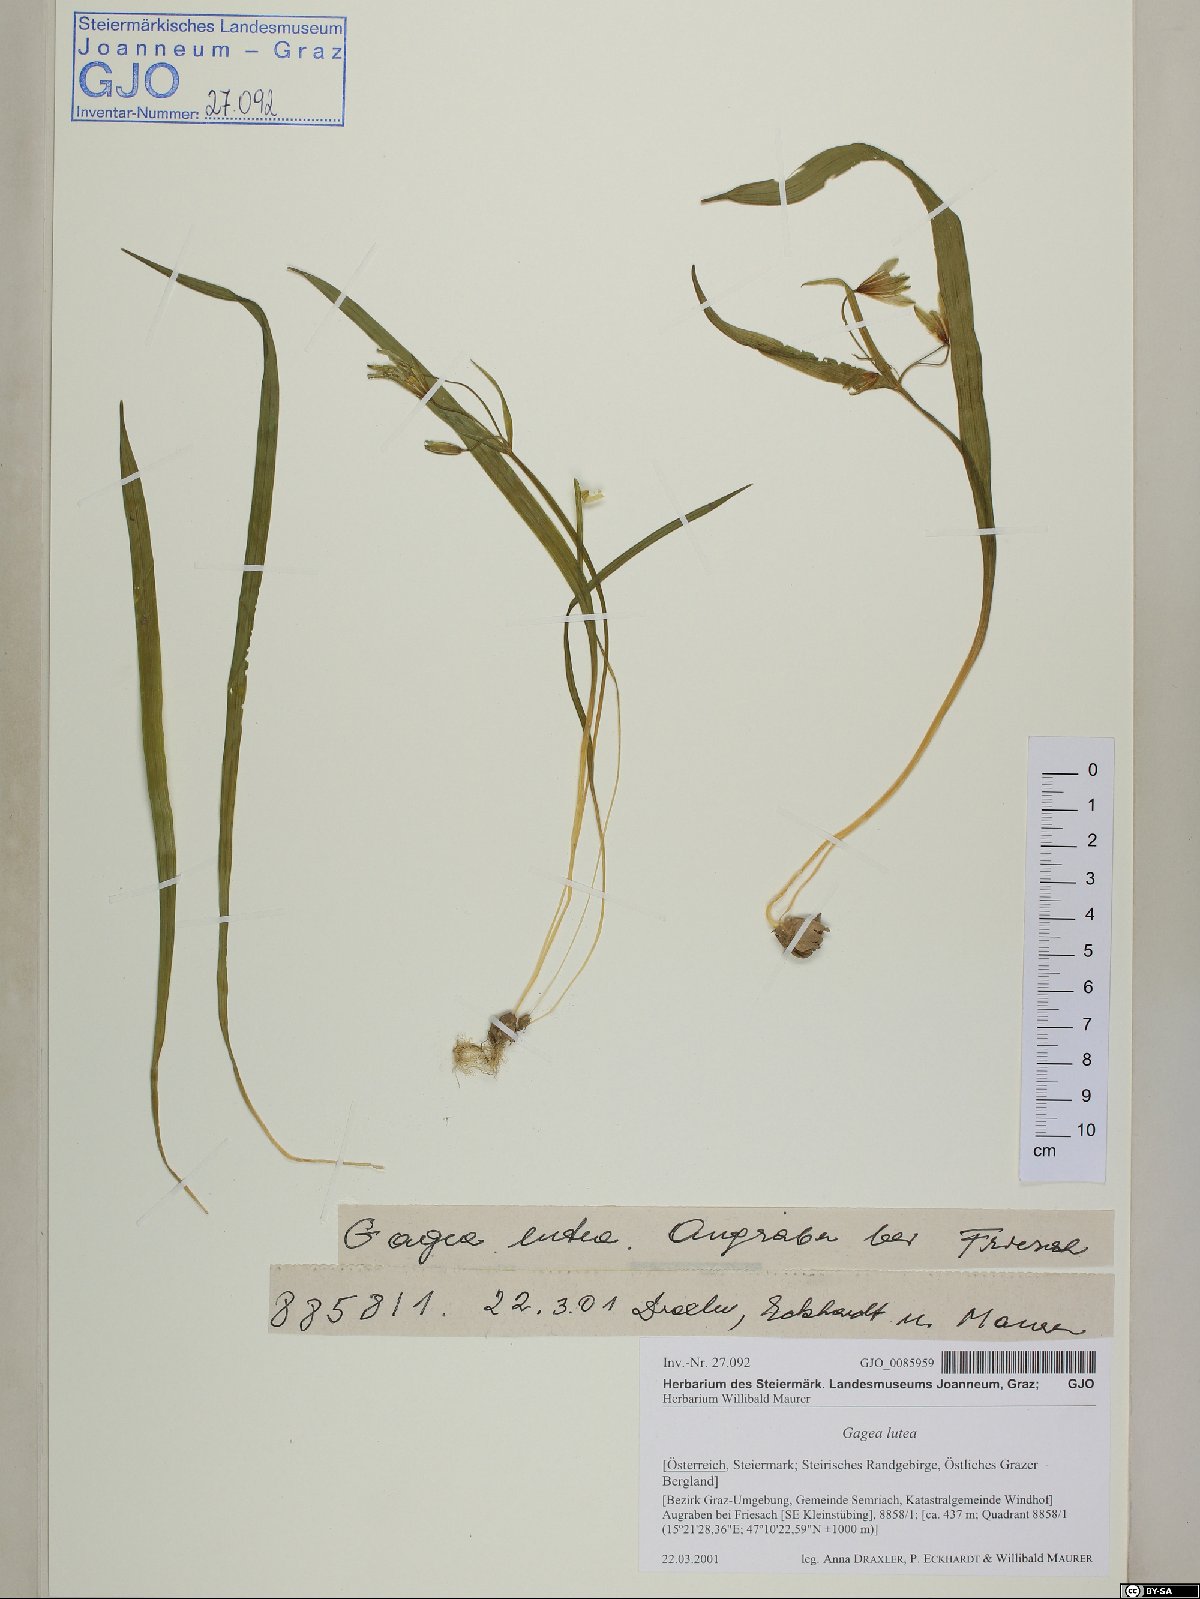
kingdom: Plantae
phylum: Tracheophyta
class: Liliopsida
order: Liliales
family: Liliaceae
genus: Gagea
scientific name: Gagea lutea
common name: Yellow star-of-bethlehem
